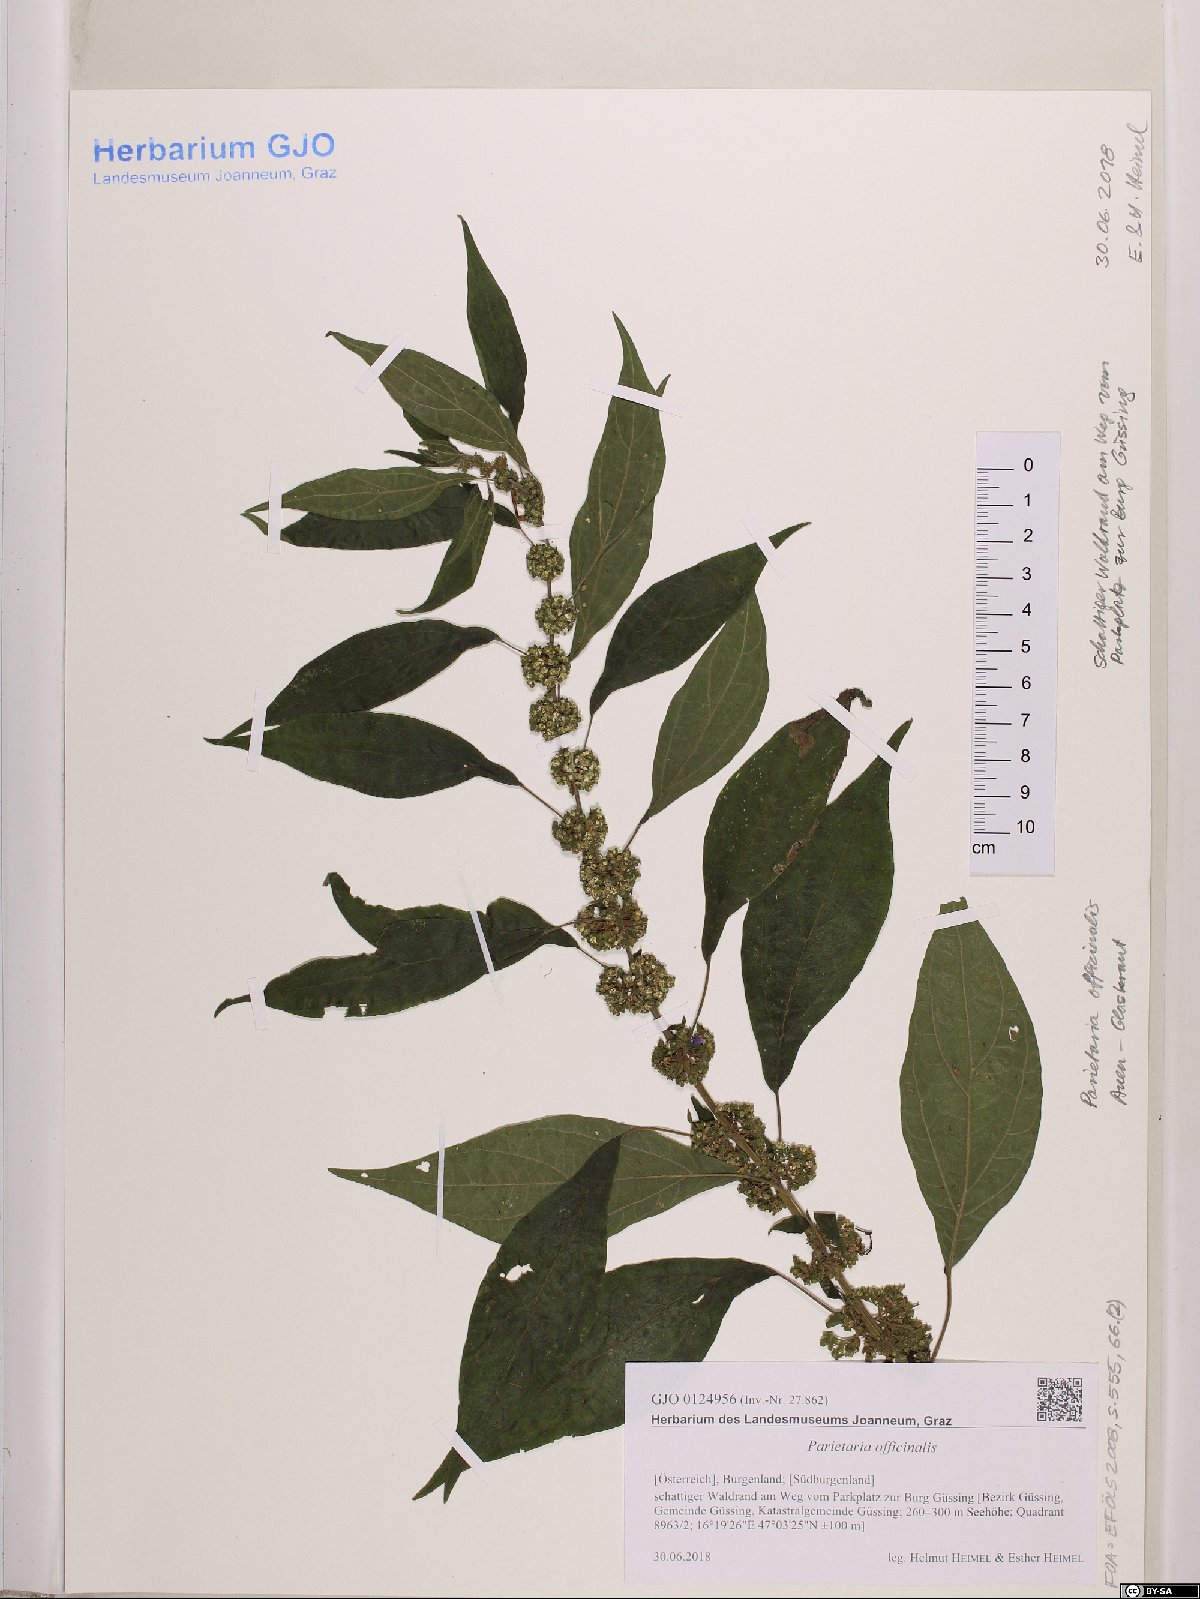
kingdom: Plantae
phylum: Tracheophyta
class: Magnoliopsida
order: Rosales
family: Urticaceae
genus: Parietaria
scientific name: Parietaria officinalis
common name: Eastern pellitory-of-the-wall
